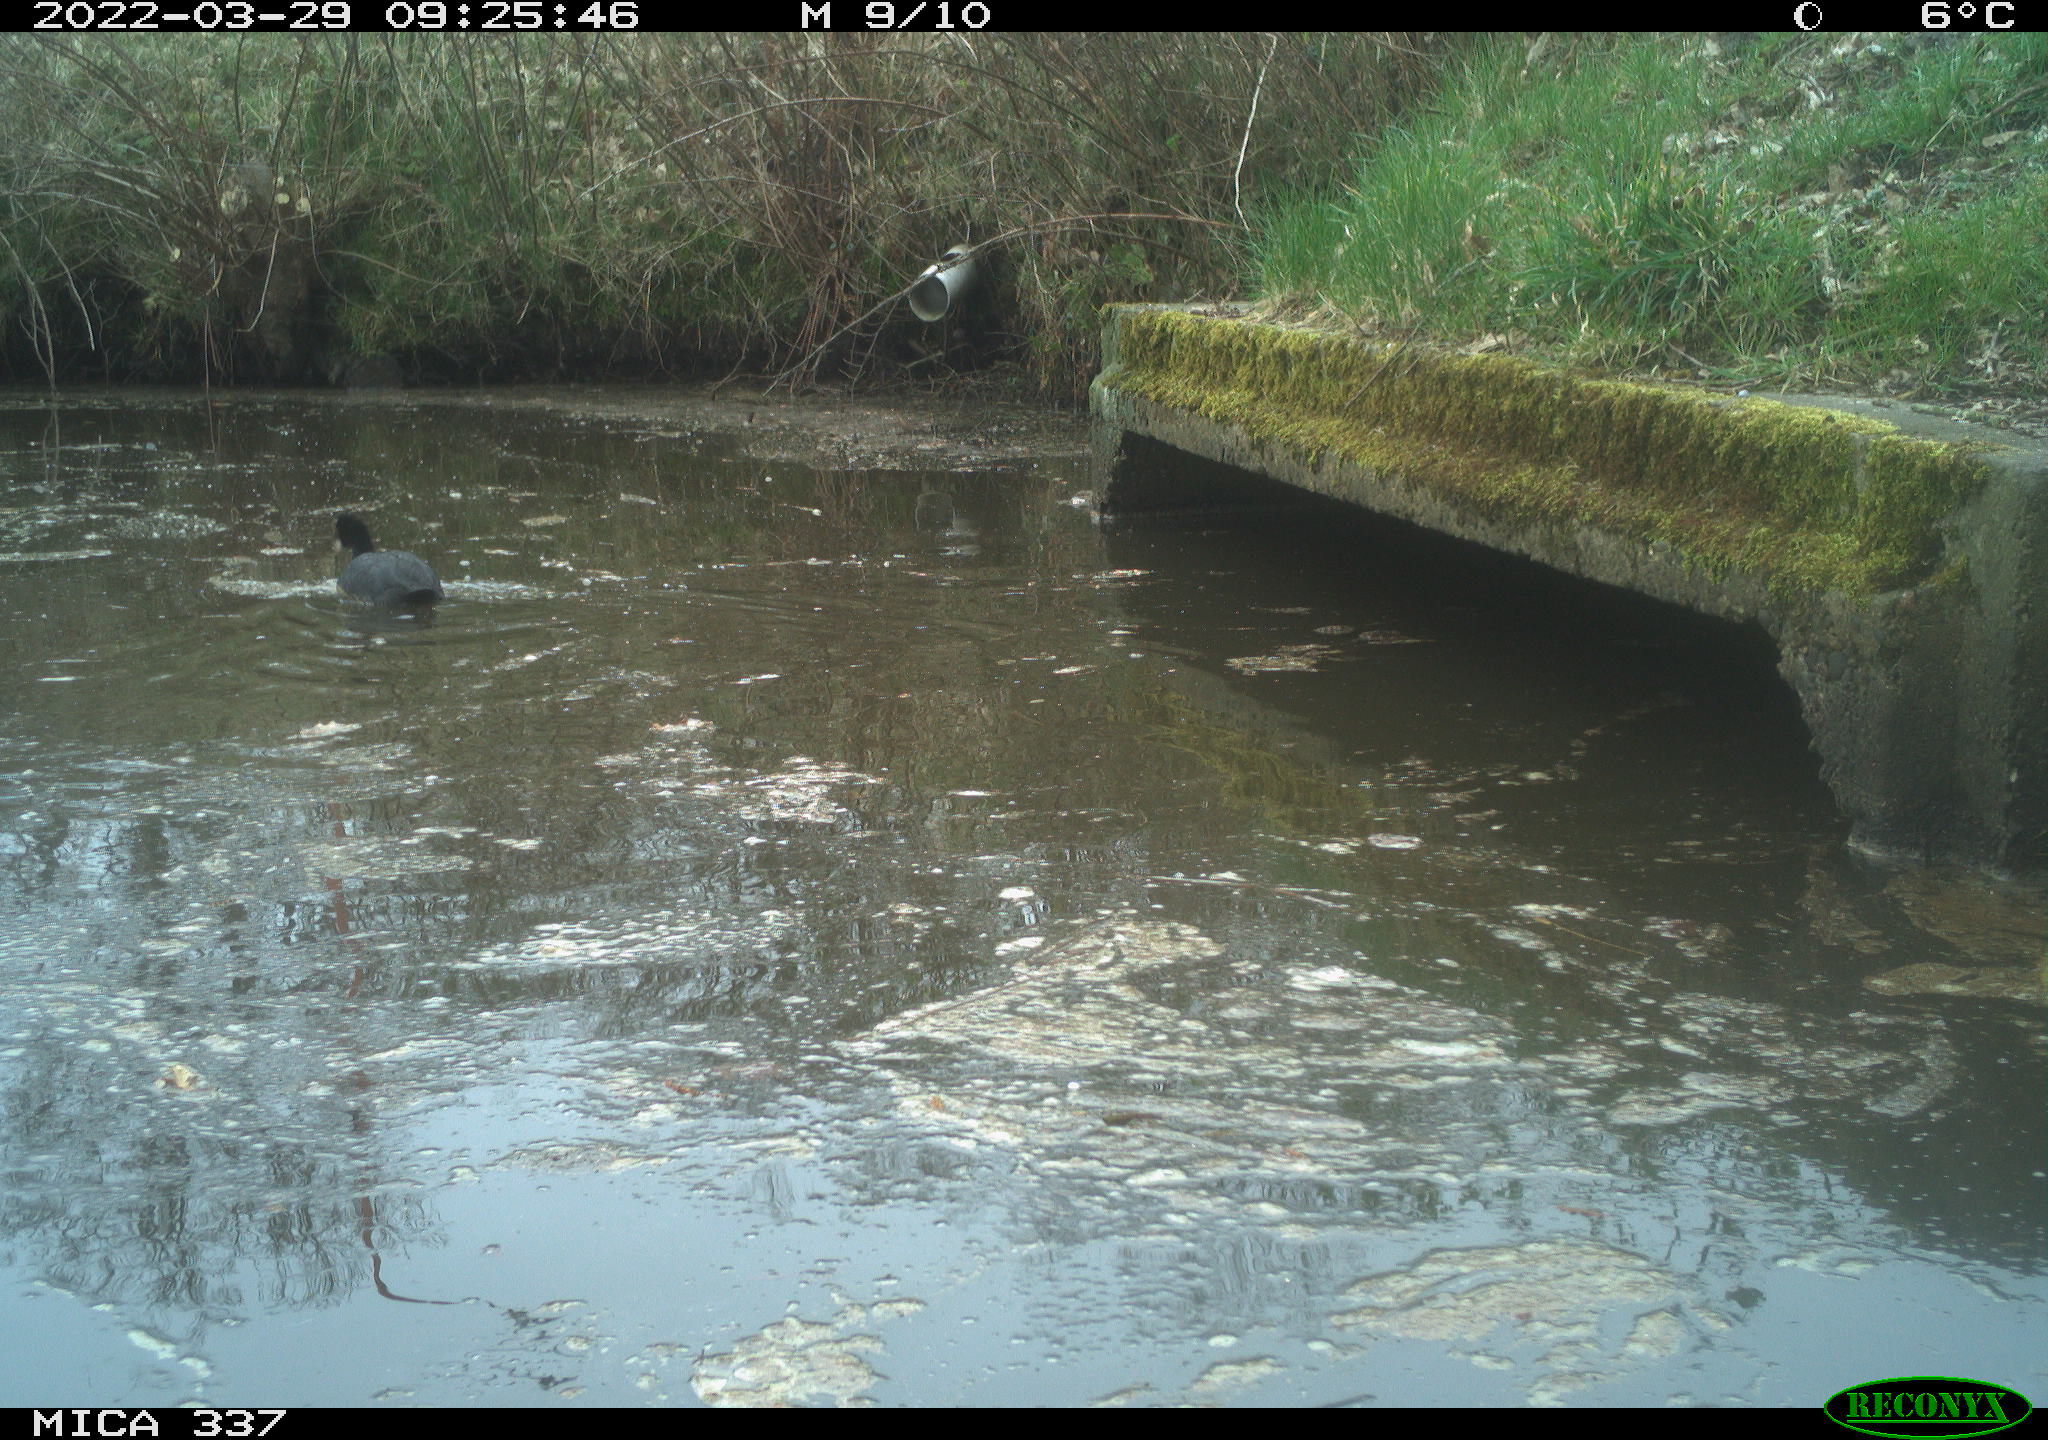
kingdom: Animalia
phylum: Chordata
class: Aves
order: Gruiformes
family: Rallidae
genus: Fulica
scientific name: Fulica atra
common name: Eurasian coot
